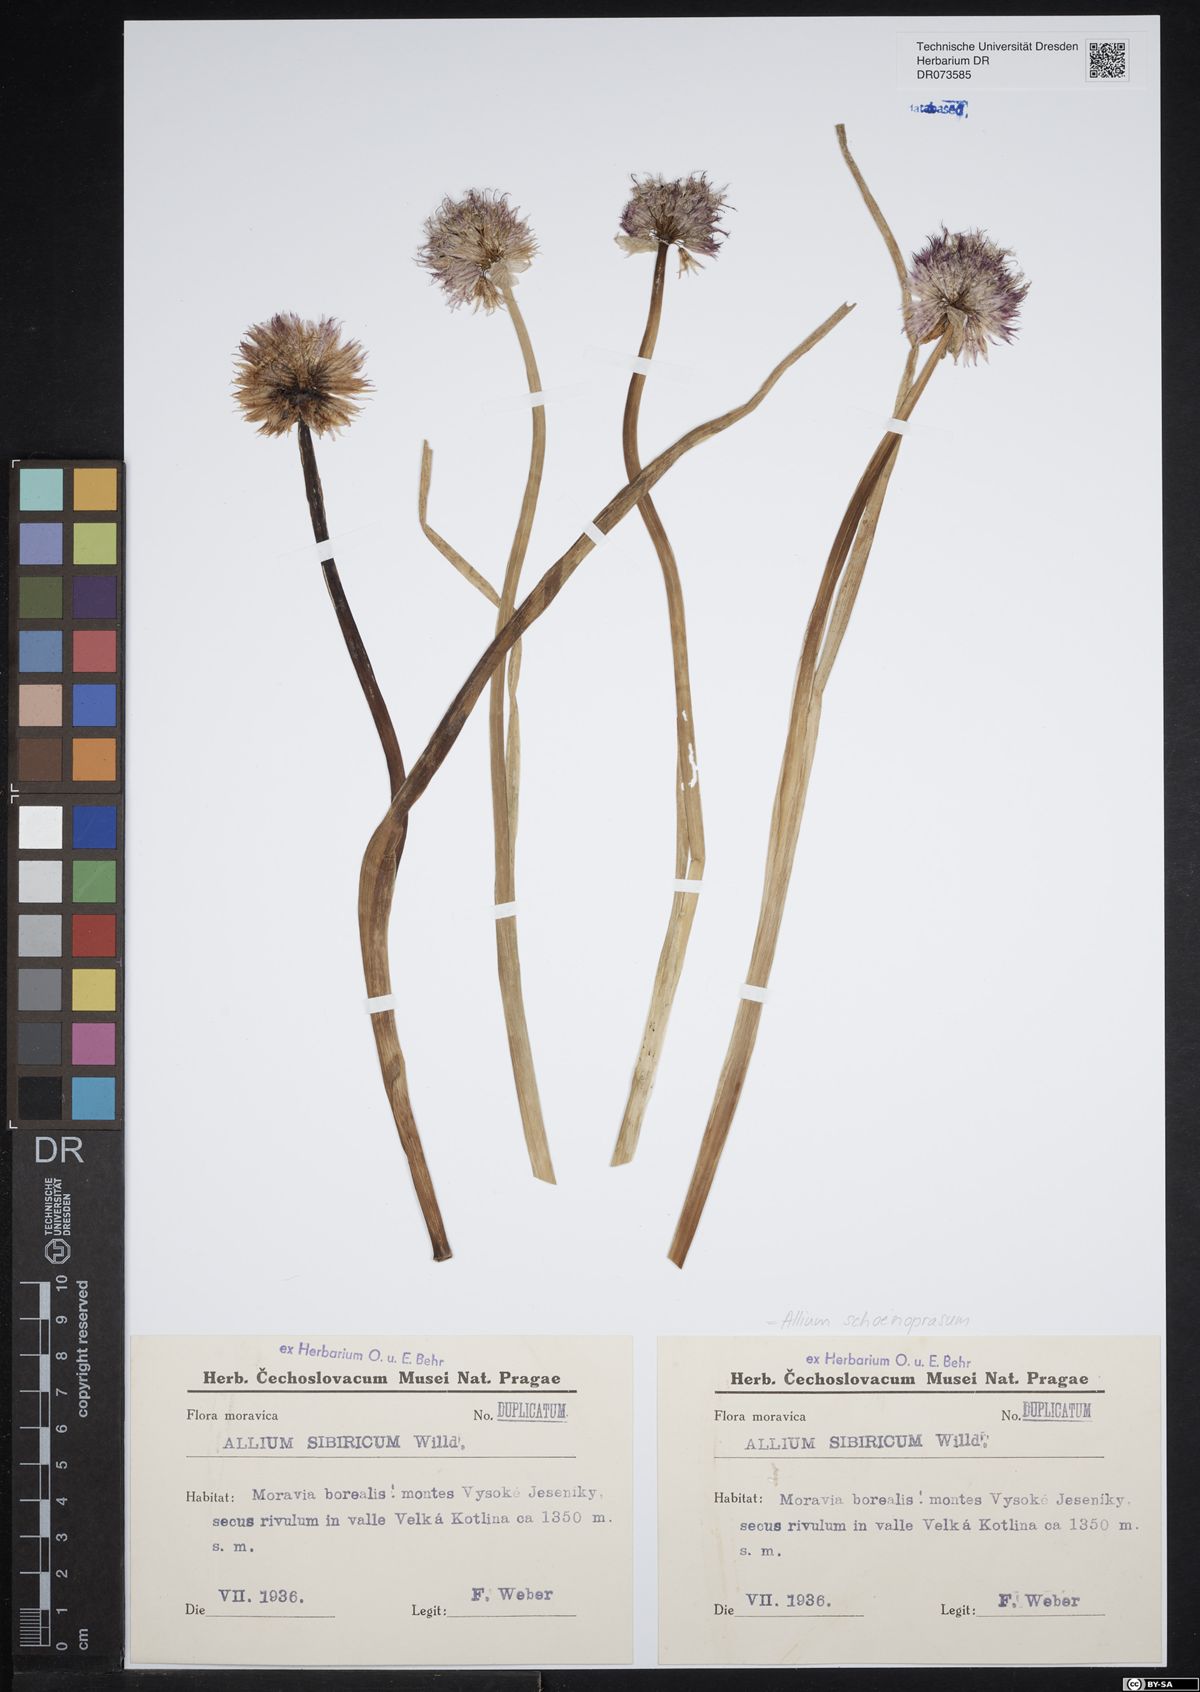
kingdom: Plantae
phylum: Tracheophyta
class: Liliopsida
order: Asparagales
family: Amaryllidaceae
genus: Allium
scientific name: Allium schoenoprasum
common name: Chives
